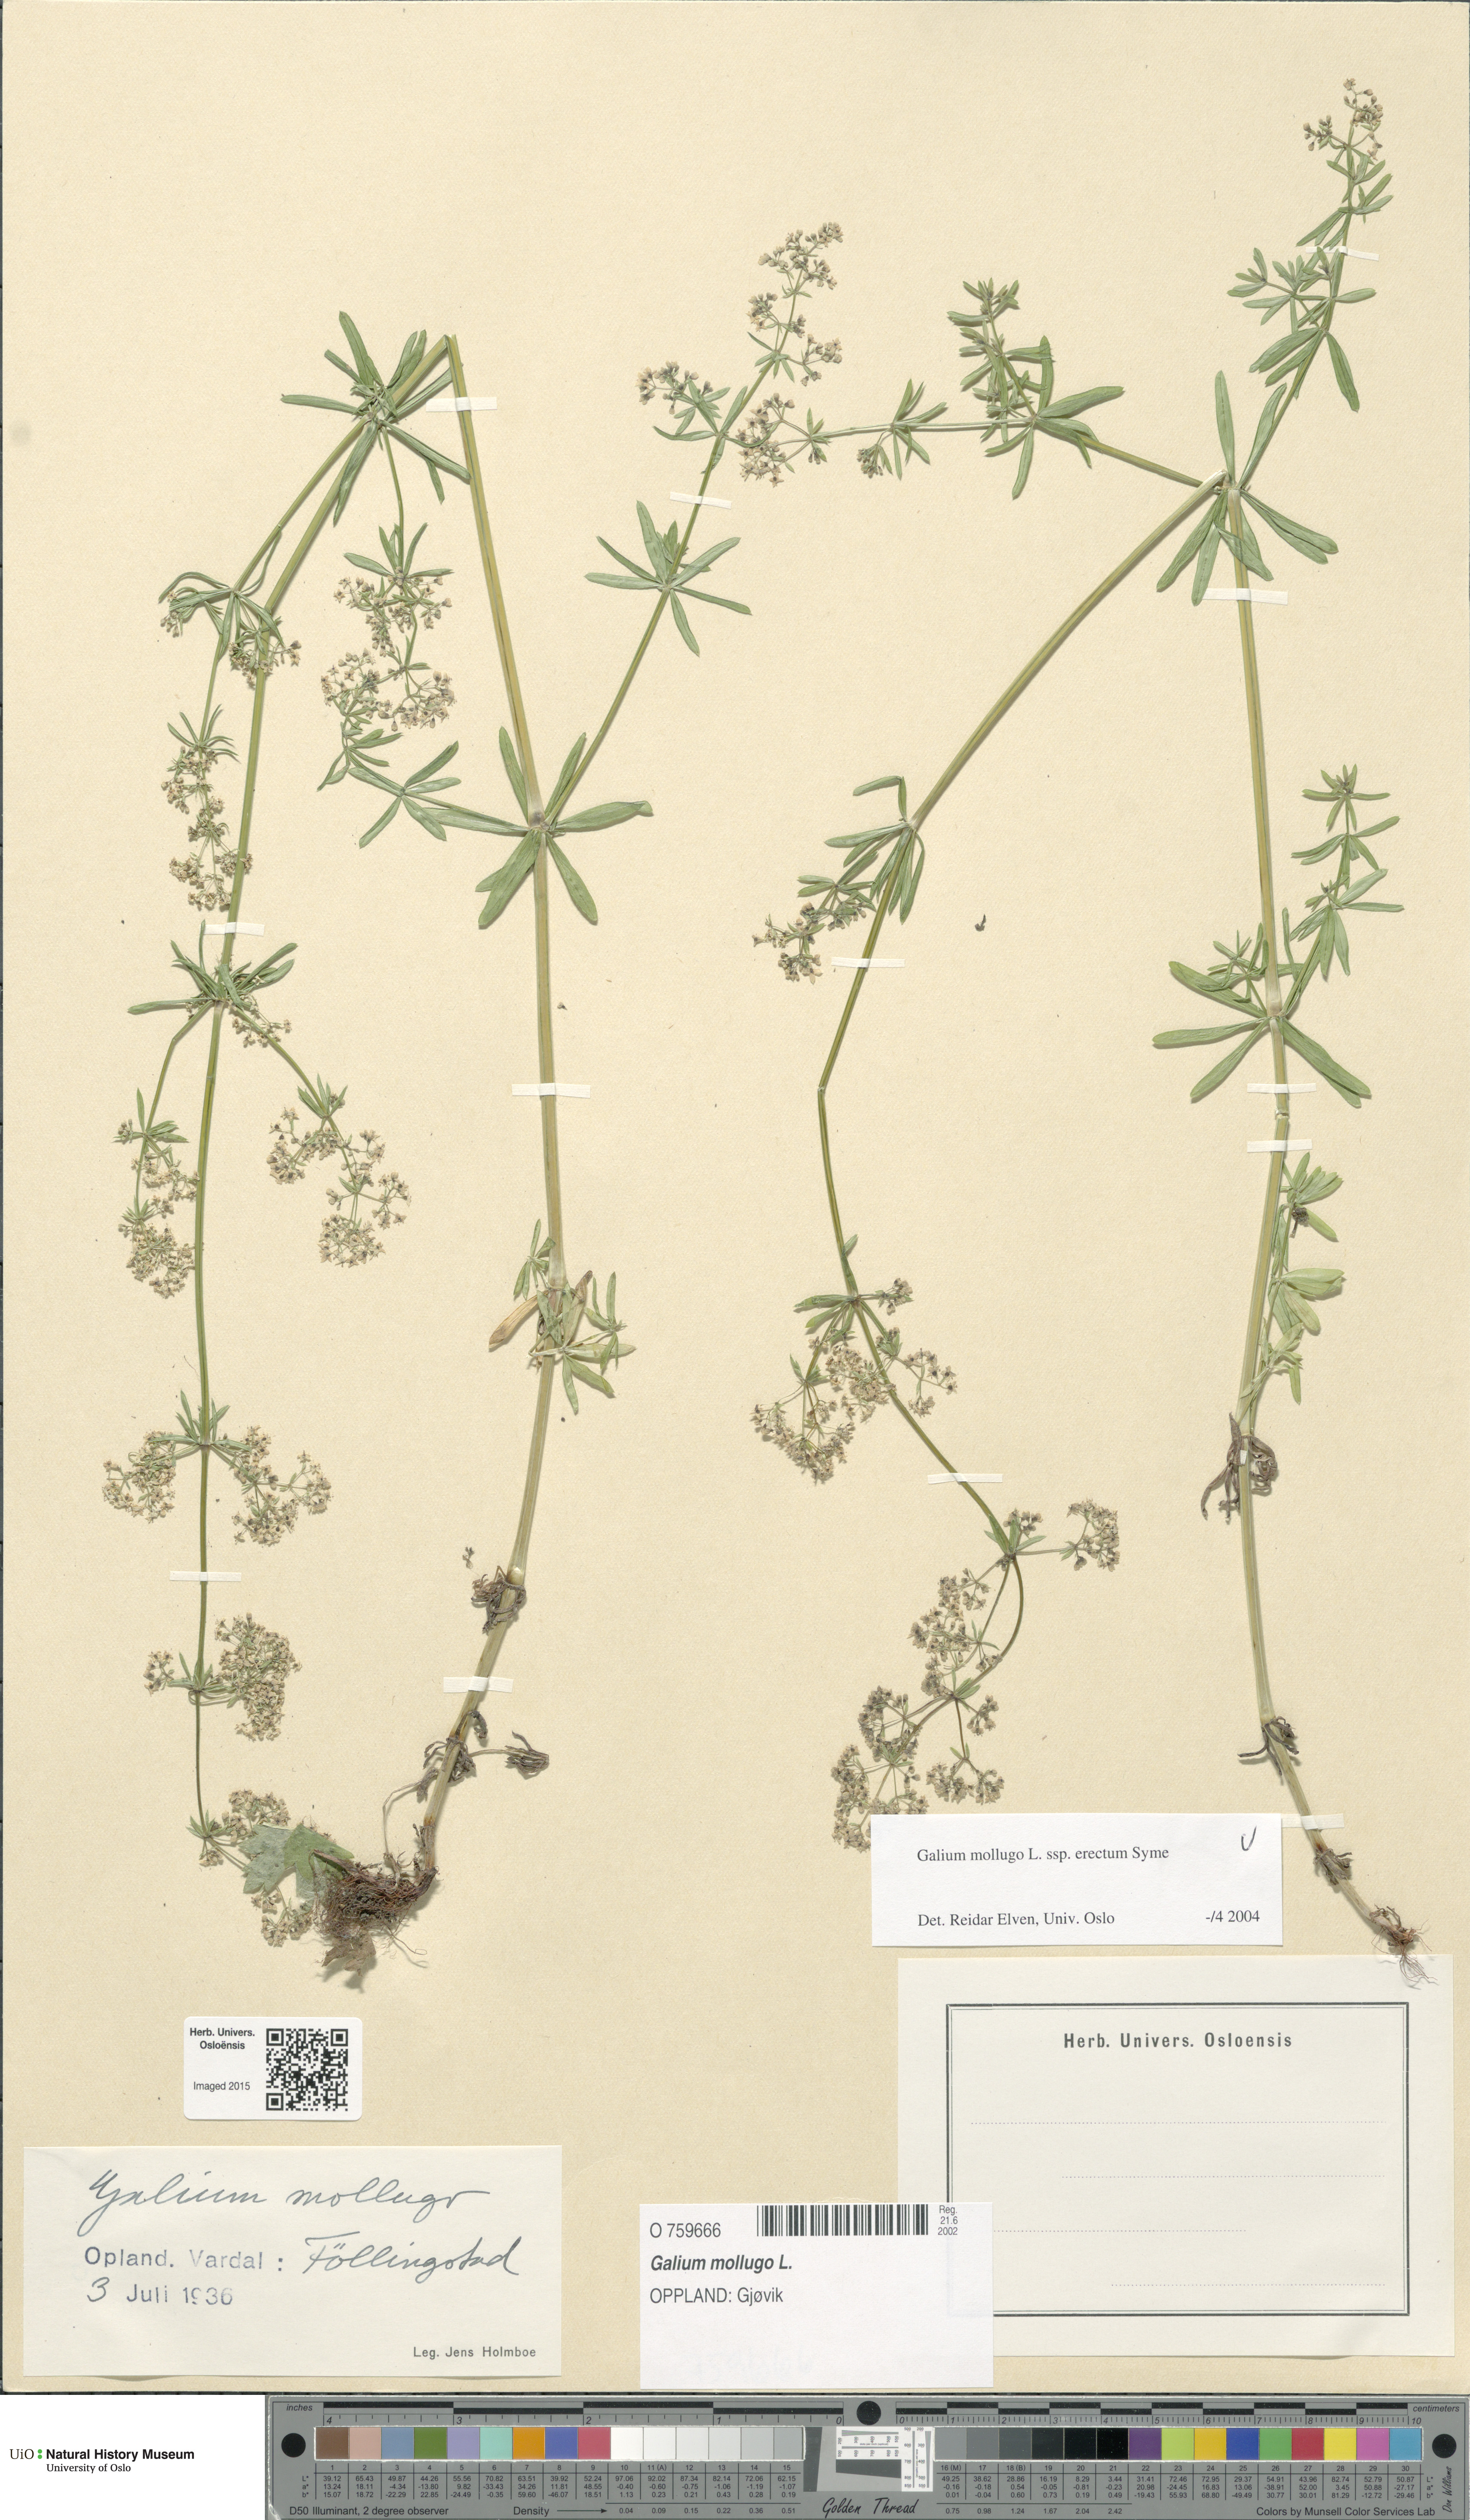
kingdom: Plantae
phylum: Tracheophyta
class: Magnoliopsida
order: Gentianales
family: Rubiaceae
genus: Galium
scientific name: Galium album
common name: White bedstraw
